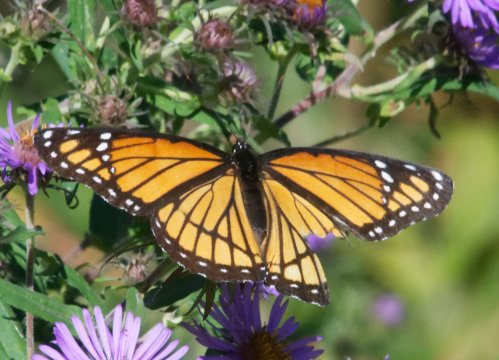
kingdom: Animalia
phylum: Arthropoda
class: Insecta
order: Lepidoptera
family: Nymphalidae
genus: Limenitis
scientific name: Limenitis archippus
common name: Viceroy
